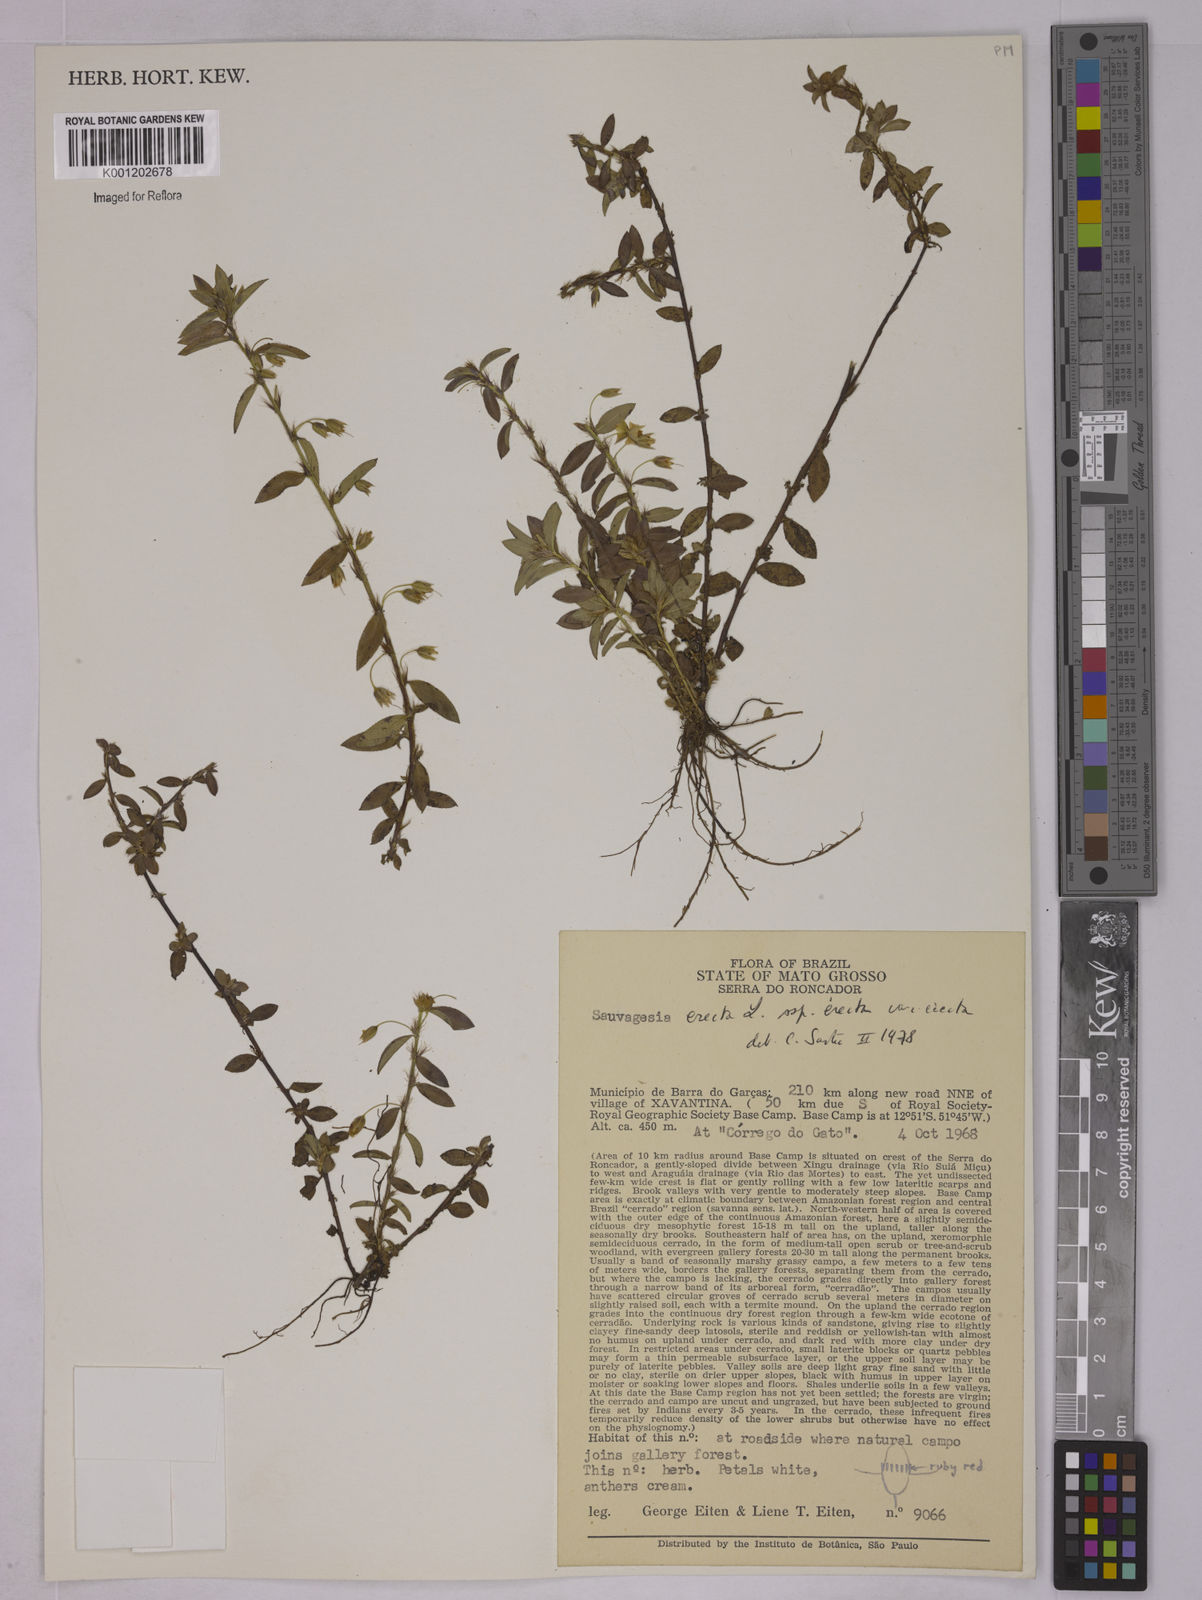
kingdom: Plantae
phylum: Tracheophyta
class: Magnoliopsida
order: Malpighiales
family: Ochnaceae
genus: Sauvagesia
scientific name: Sauvagesia erecta
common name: Creole tea
